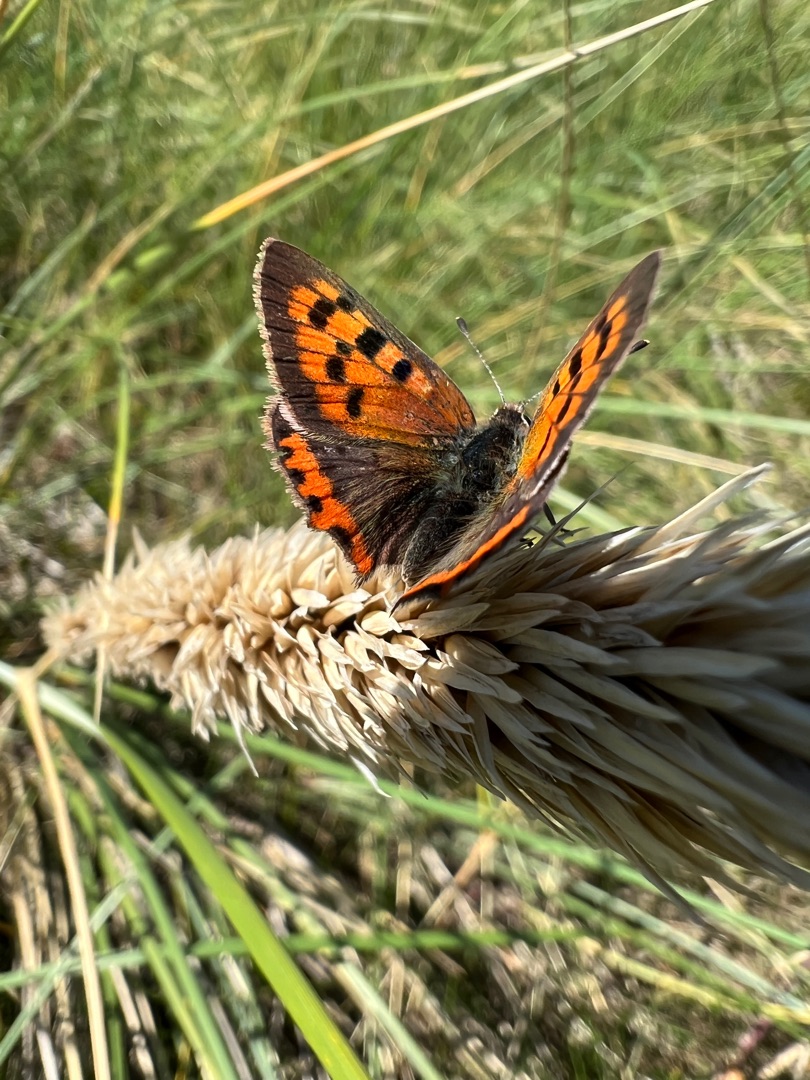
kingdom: Animalia
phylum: Arthropoda
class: Insecta
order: Lepidoptera
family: Lycaenidae
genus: Lycaena
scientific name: Lycaena phlaeas
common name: Lille ildfugl
